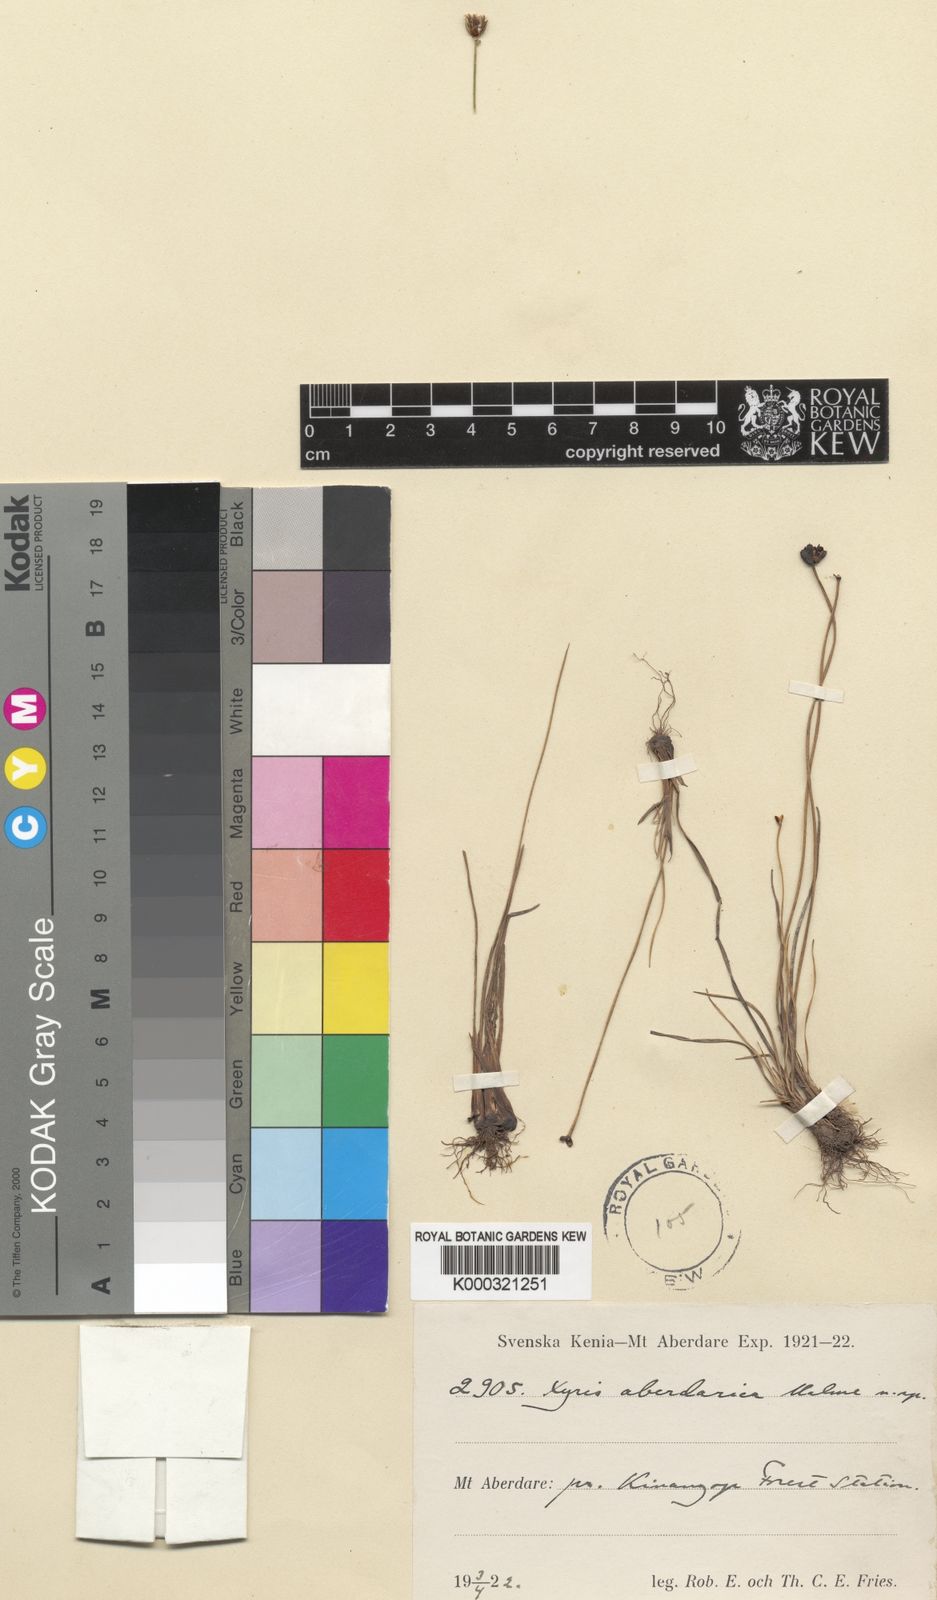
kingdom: Plantae
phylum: Tracheophyta
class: Liliopsida
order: Poales
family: Xyridaceae
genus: Xyris
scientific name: Xyris aberdarica
